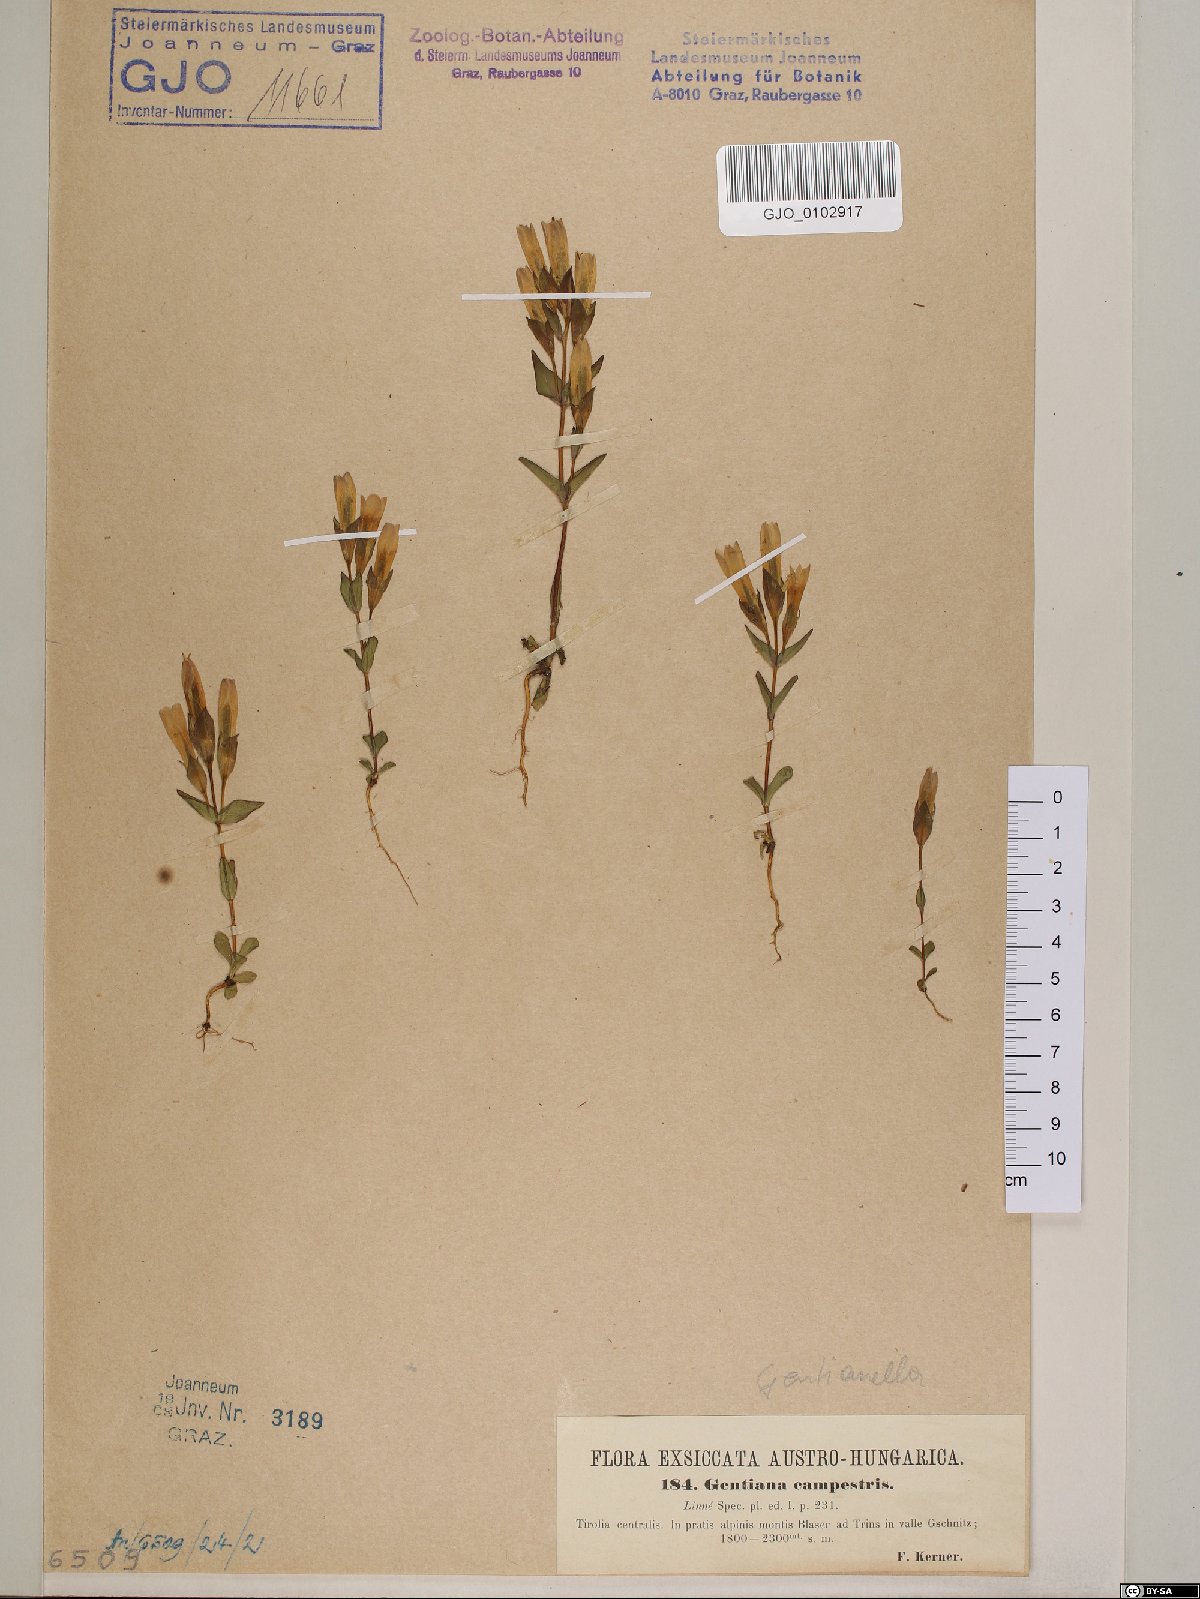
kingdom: Plantae
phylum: Tracheophyta
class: Magnoliopsida
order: Gentianales
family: Gentianaceae
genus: Gentianella
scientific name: Gentianella campestris
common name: Field gentian
